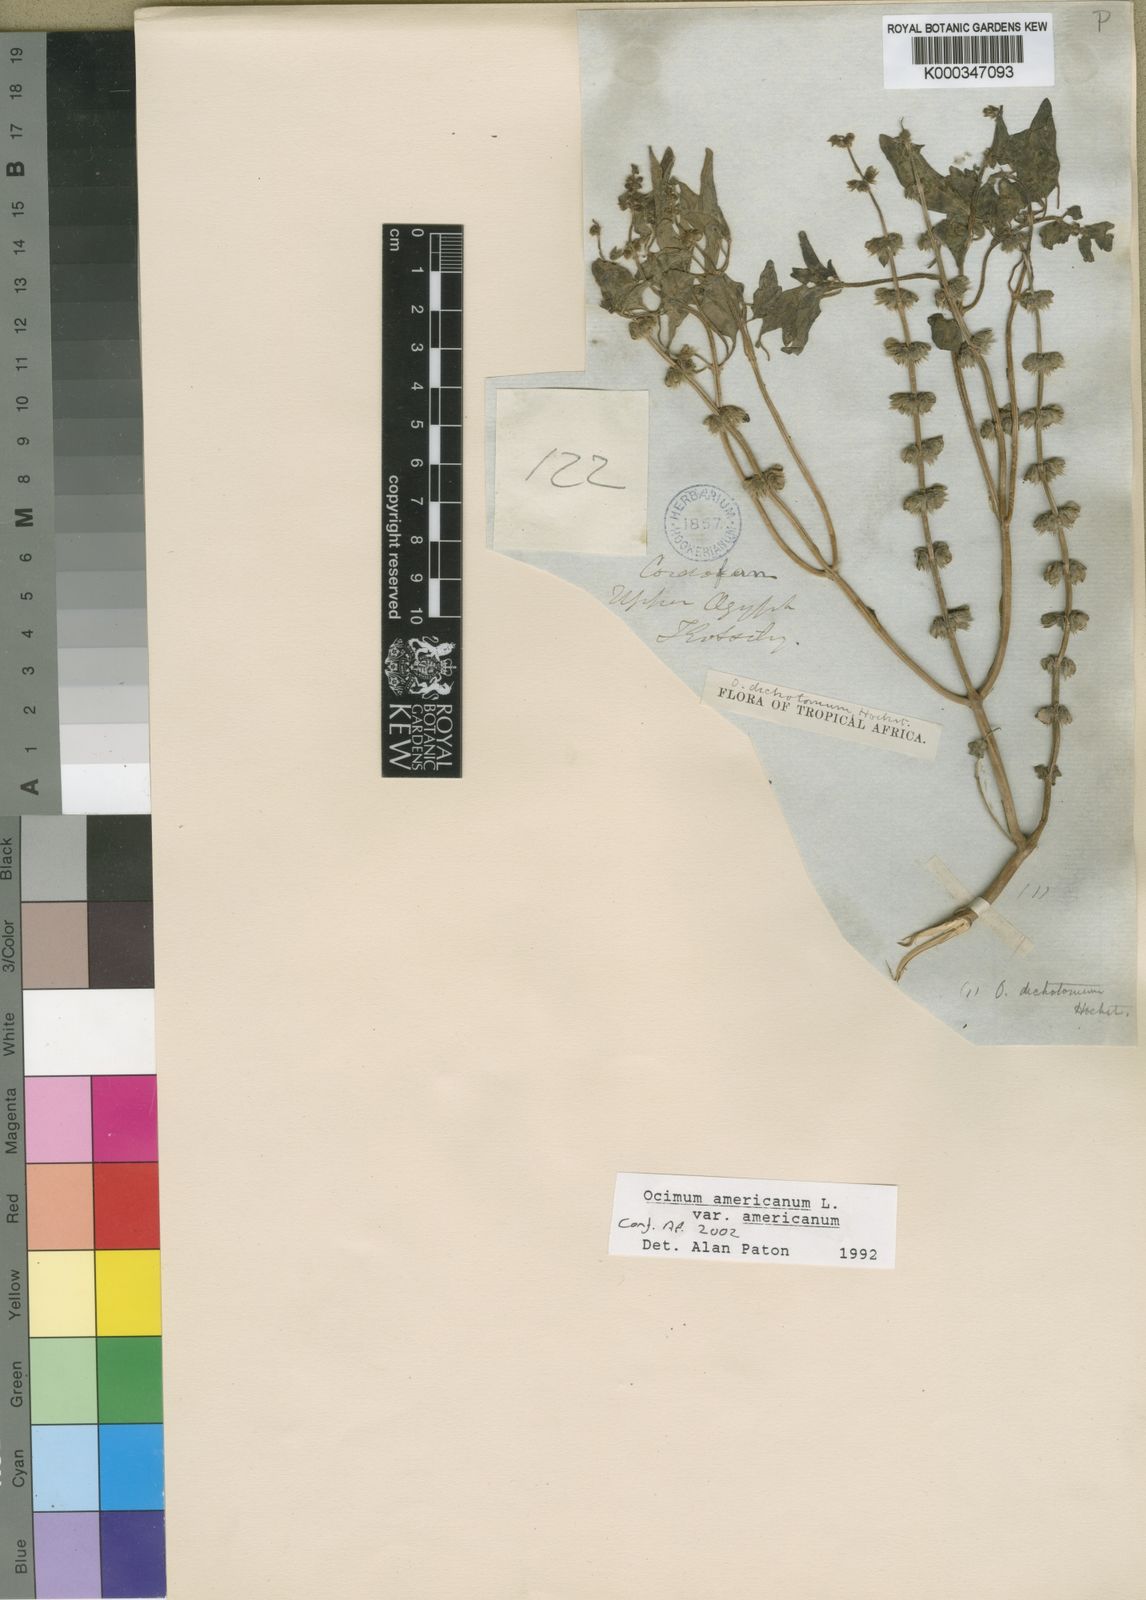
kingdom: Plantae
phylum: Tracheophyta
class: Magnoliopsida
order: Lamiales
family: Lamiaceae
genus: Ocimum
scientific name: Ocimum americanum
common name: American basil
